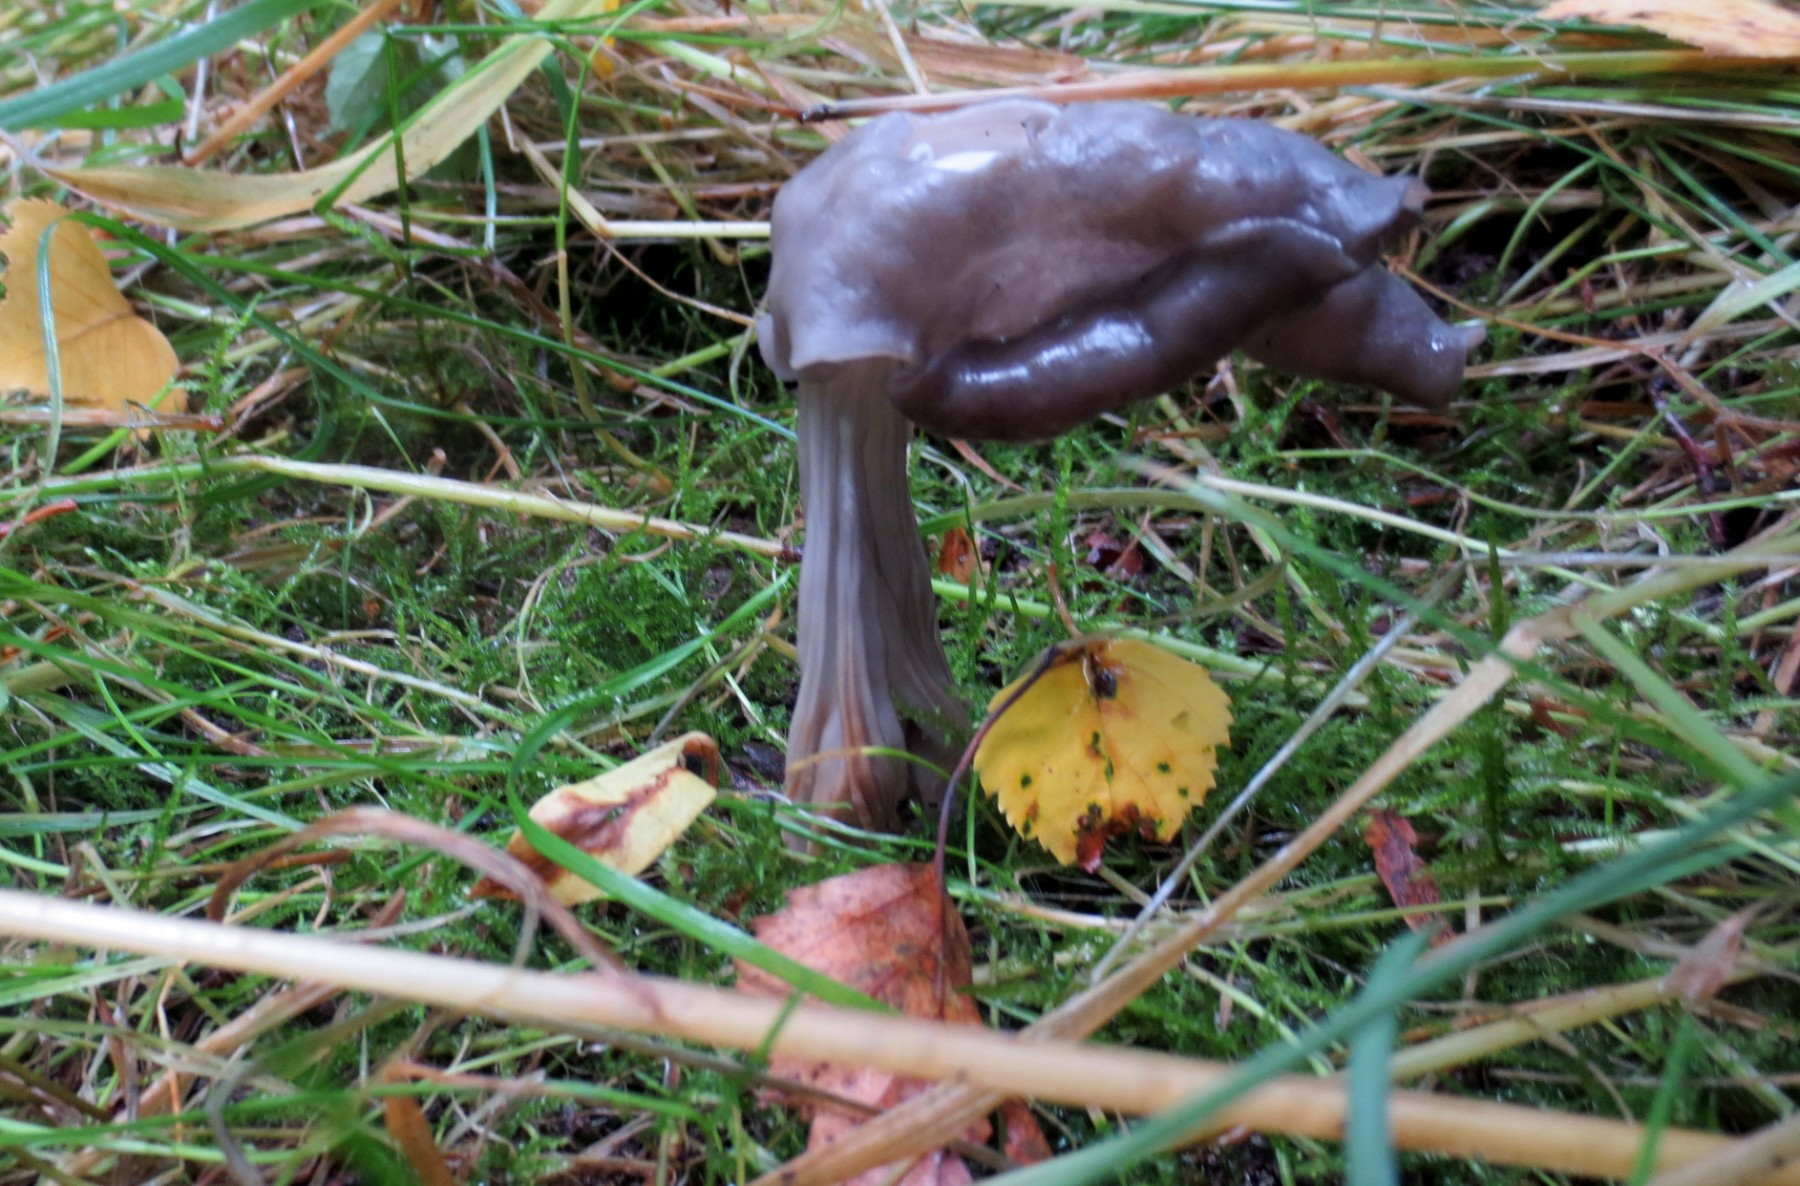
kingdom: Fungi
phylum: Ascomycota
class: Pezizomycetes
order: Pezizales
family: Helvellaceae
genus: Helvella
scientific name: Helvella lacunosa
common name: grubet foldhat
